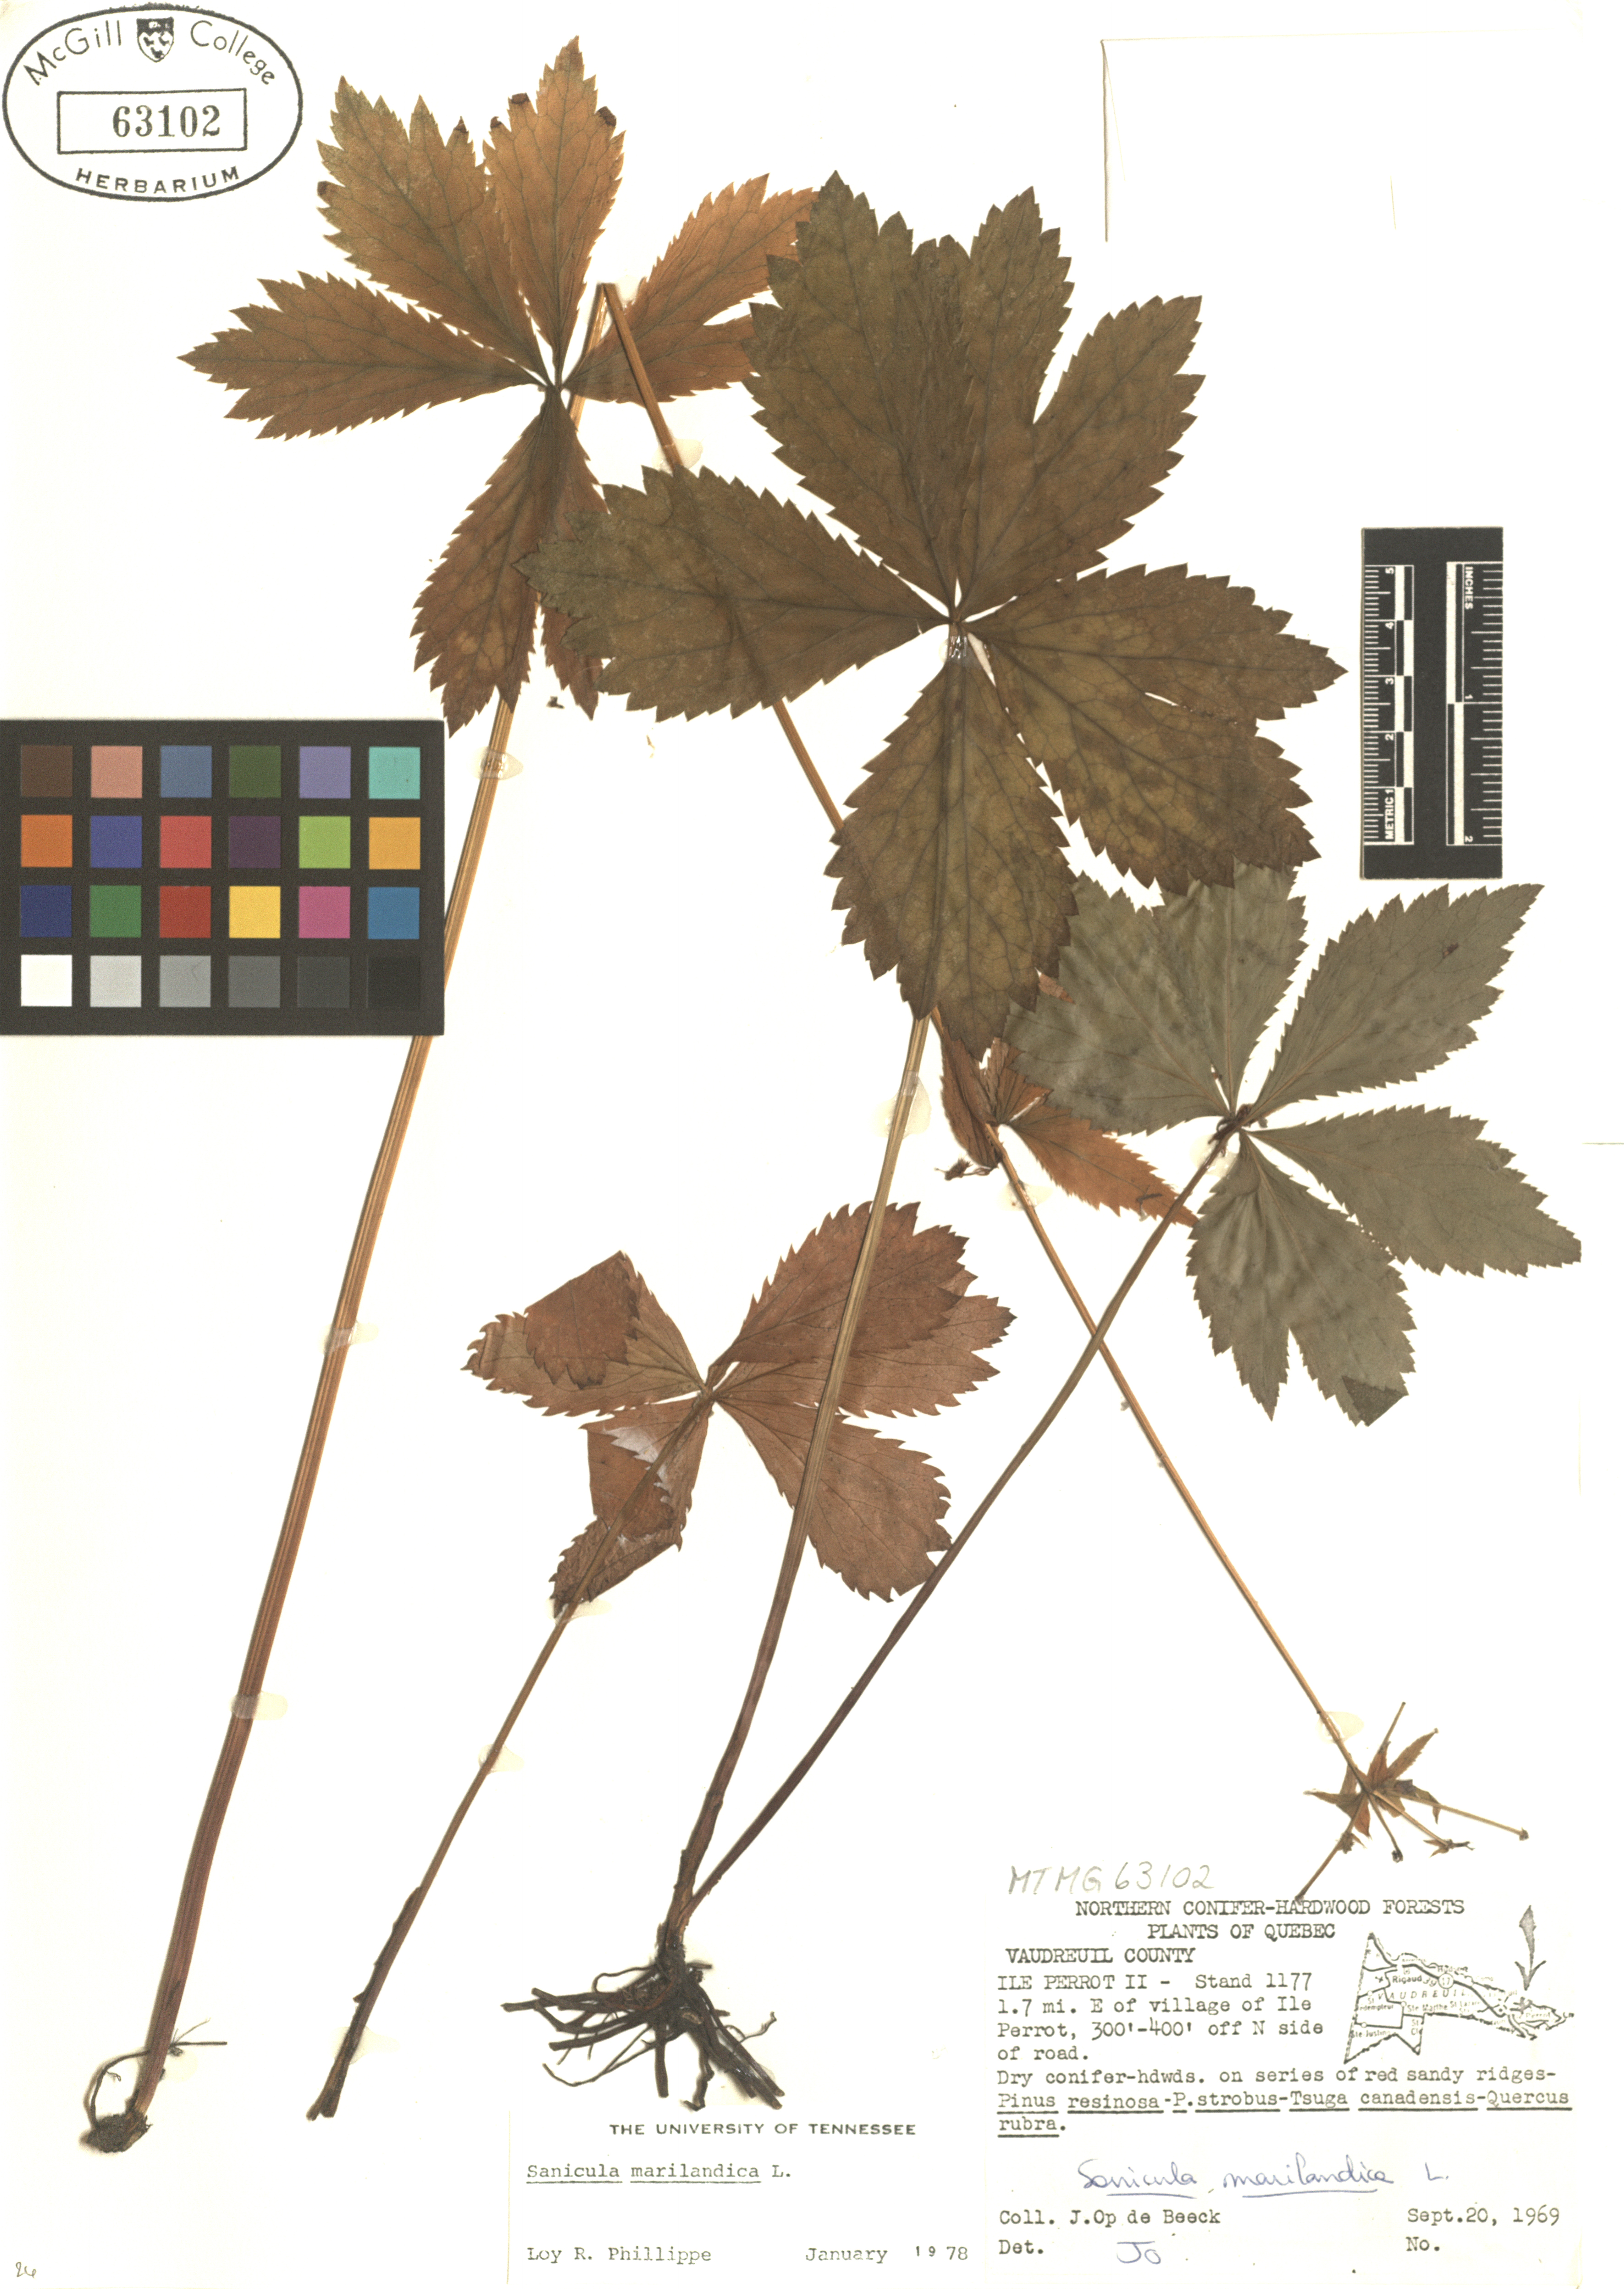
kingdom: Plantae
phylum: Tracheophyta
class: Magnoliopsida
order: Apiales
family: Apiaceae
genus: Sanicula
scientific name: Sanicula marilandica
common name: Black snakeroot
